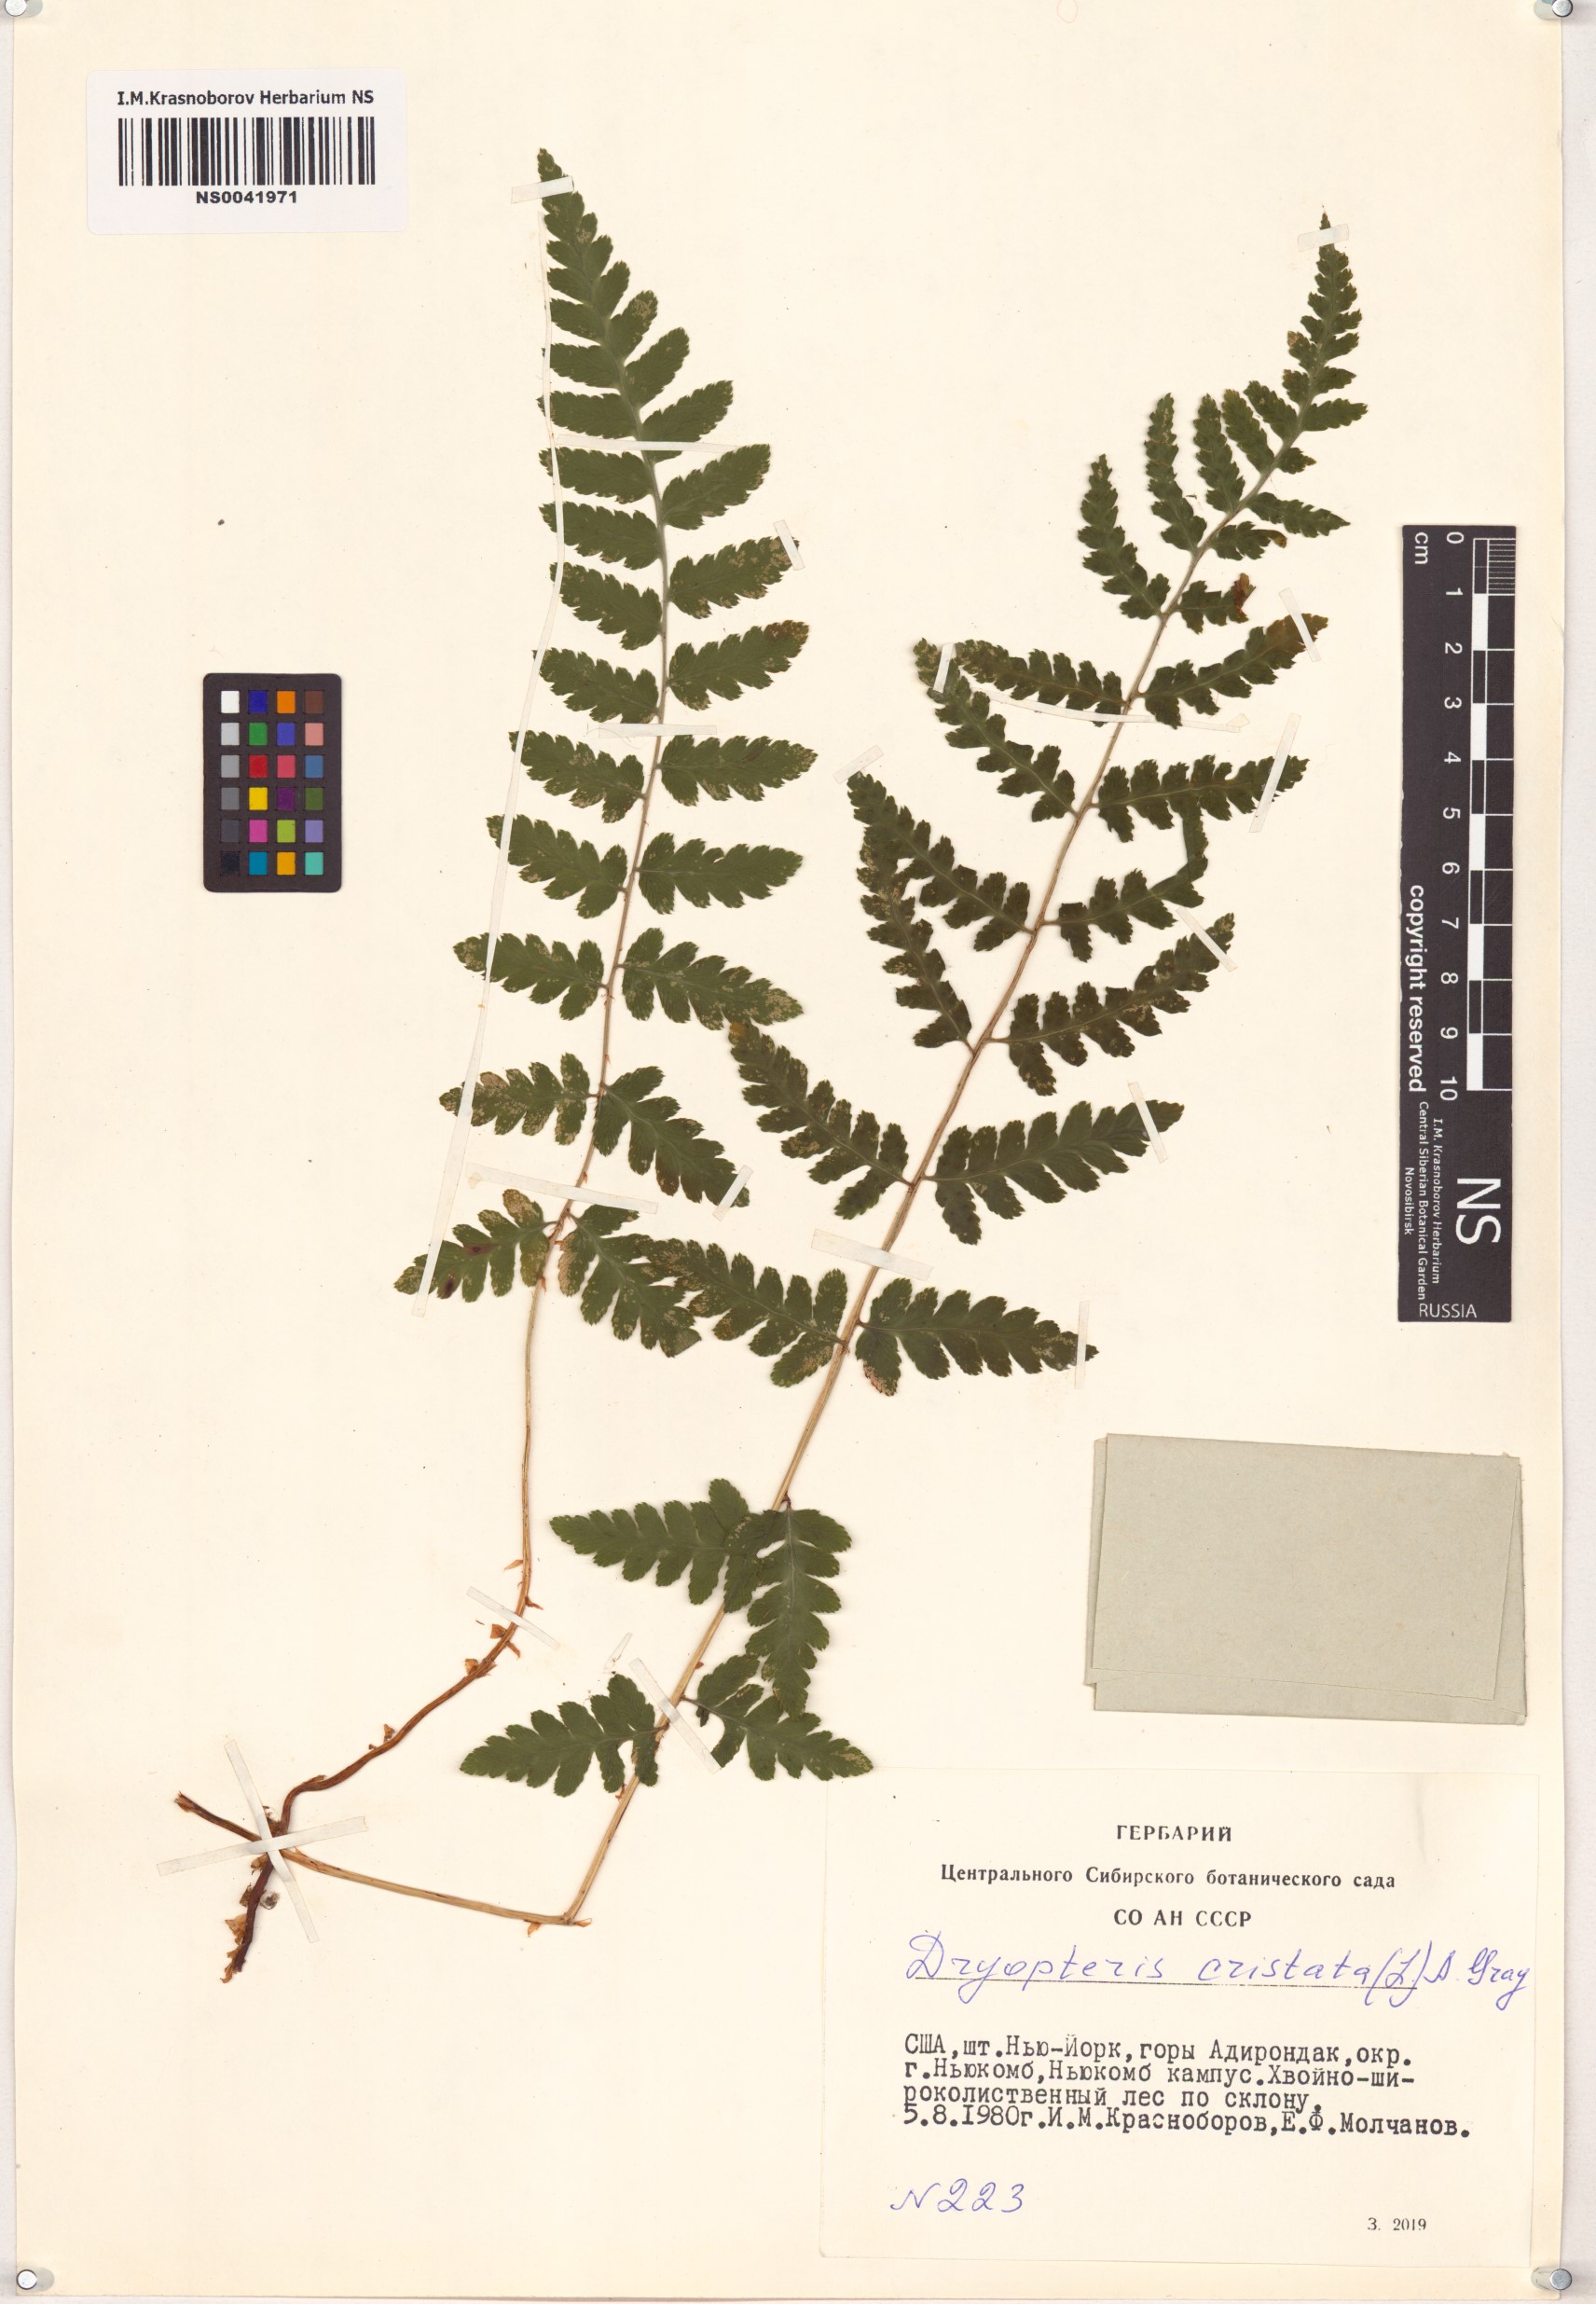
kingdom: Plantae
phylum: Tracheophyta
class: Polypodiopsida
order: Polypodiales
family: Dryopteridaceae
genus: Dryopteris
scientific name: Dryopteris cristata
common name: Crested wood fern
